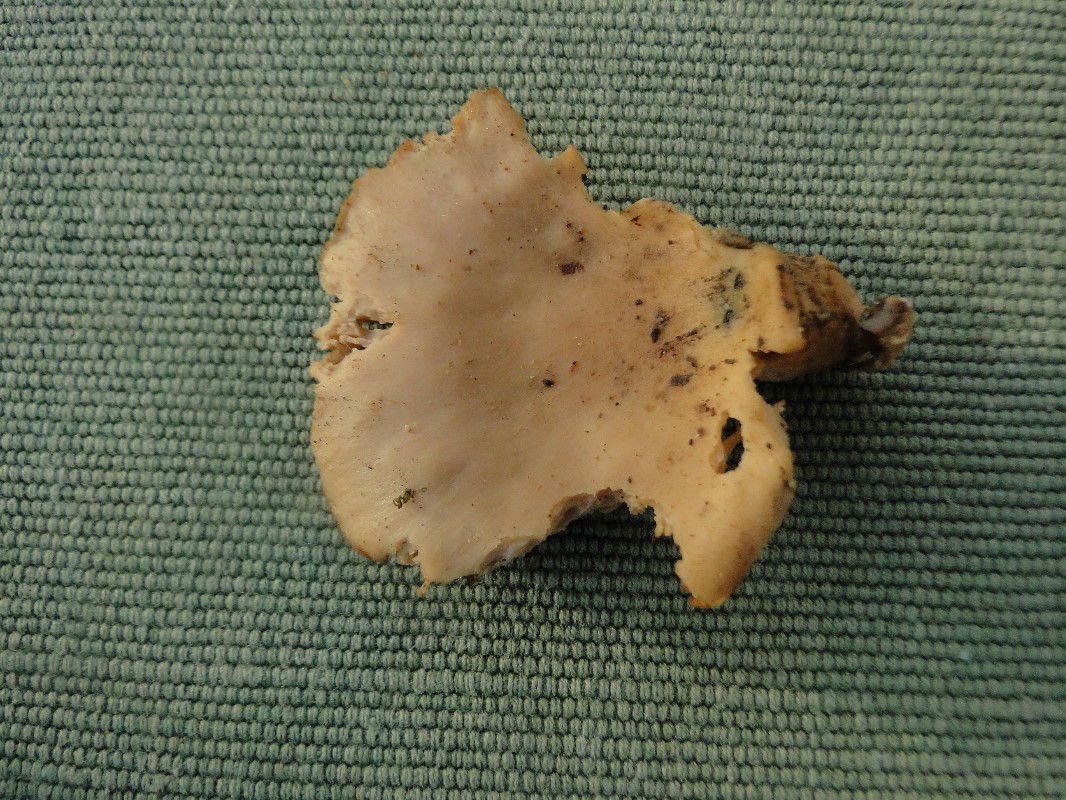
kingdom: Fungi
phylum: Basidiomycota
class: Agaricomycetes
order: Agaricales
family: Pleurotaceae
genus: Pleurotus
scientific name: Pleurotus
